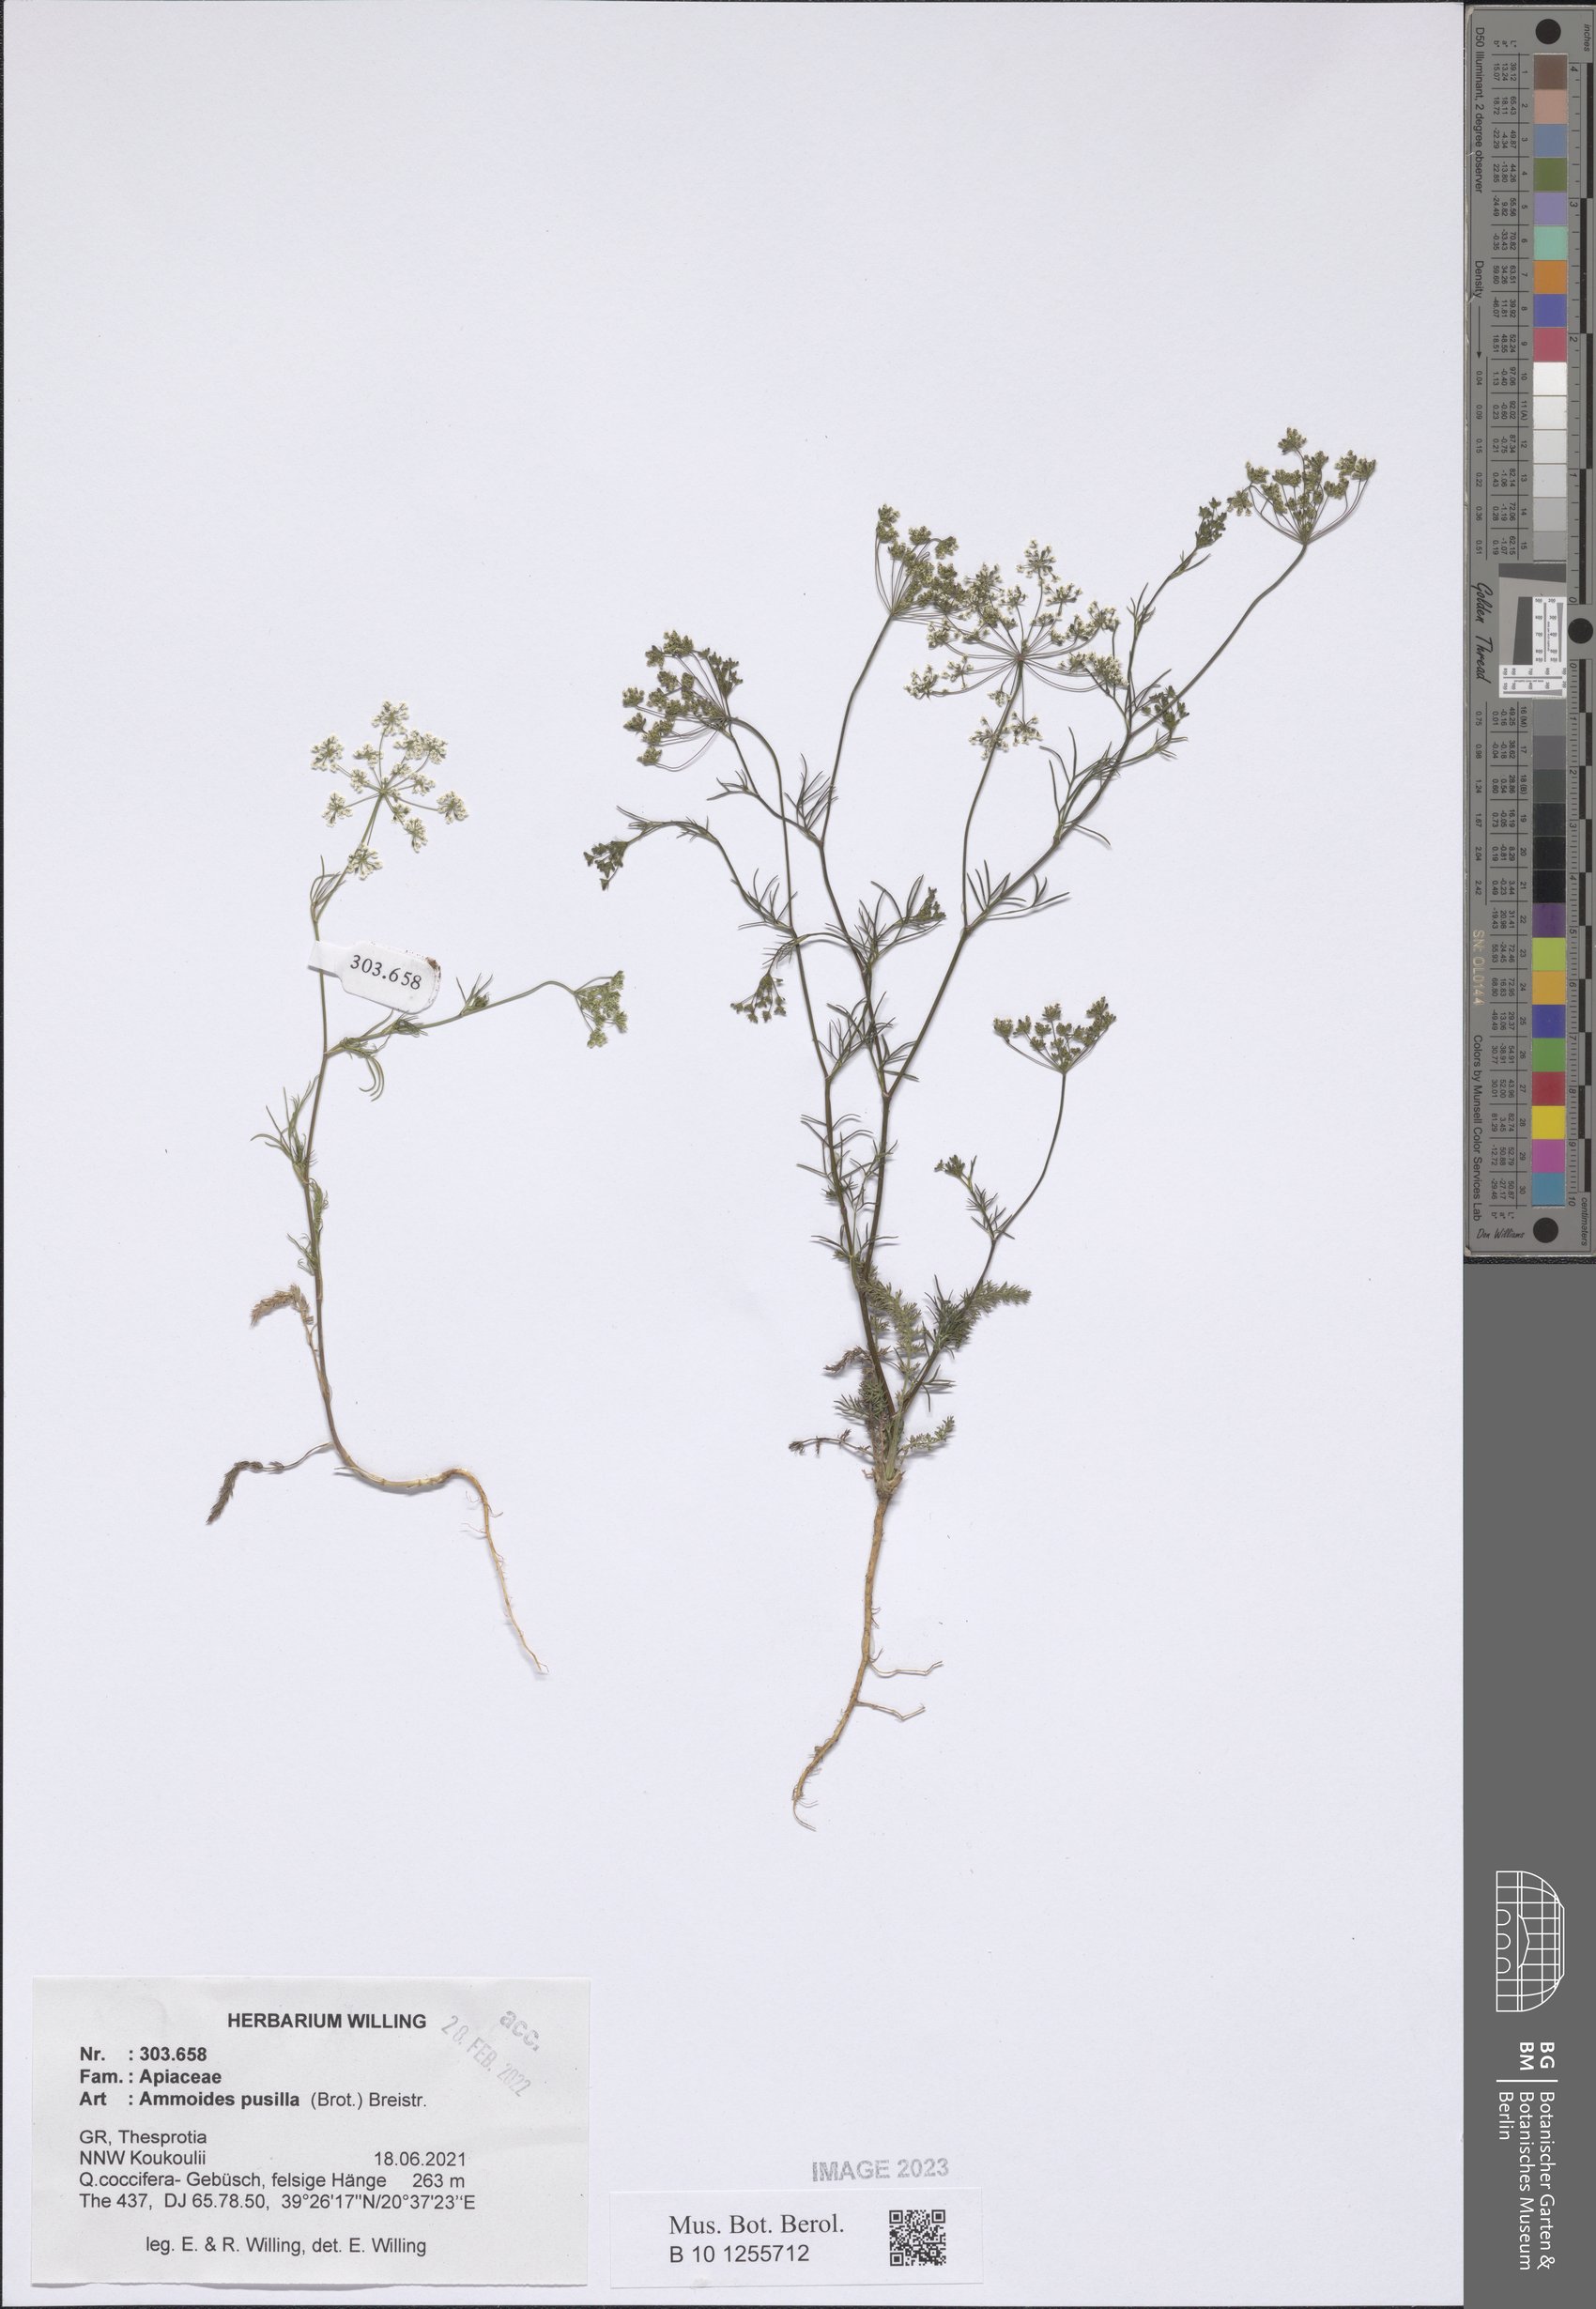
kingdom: Plantae
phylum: Tracheophyta
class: Magnoliopsida
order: Apiales
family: Apiaceae
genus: Ammoides
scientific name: Ammoides pusilla
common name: Cerfolium
